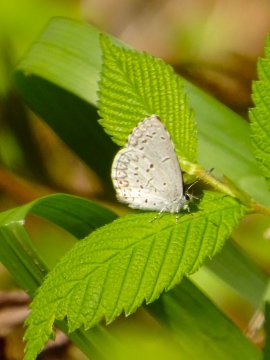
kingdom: Animalia
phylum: Arthropoda
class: Insecta
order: Lepidoptera
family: Lycaenidae
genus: Celastrina
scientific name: Celastrina lucia
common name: Northern Spring Azure
